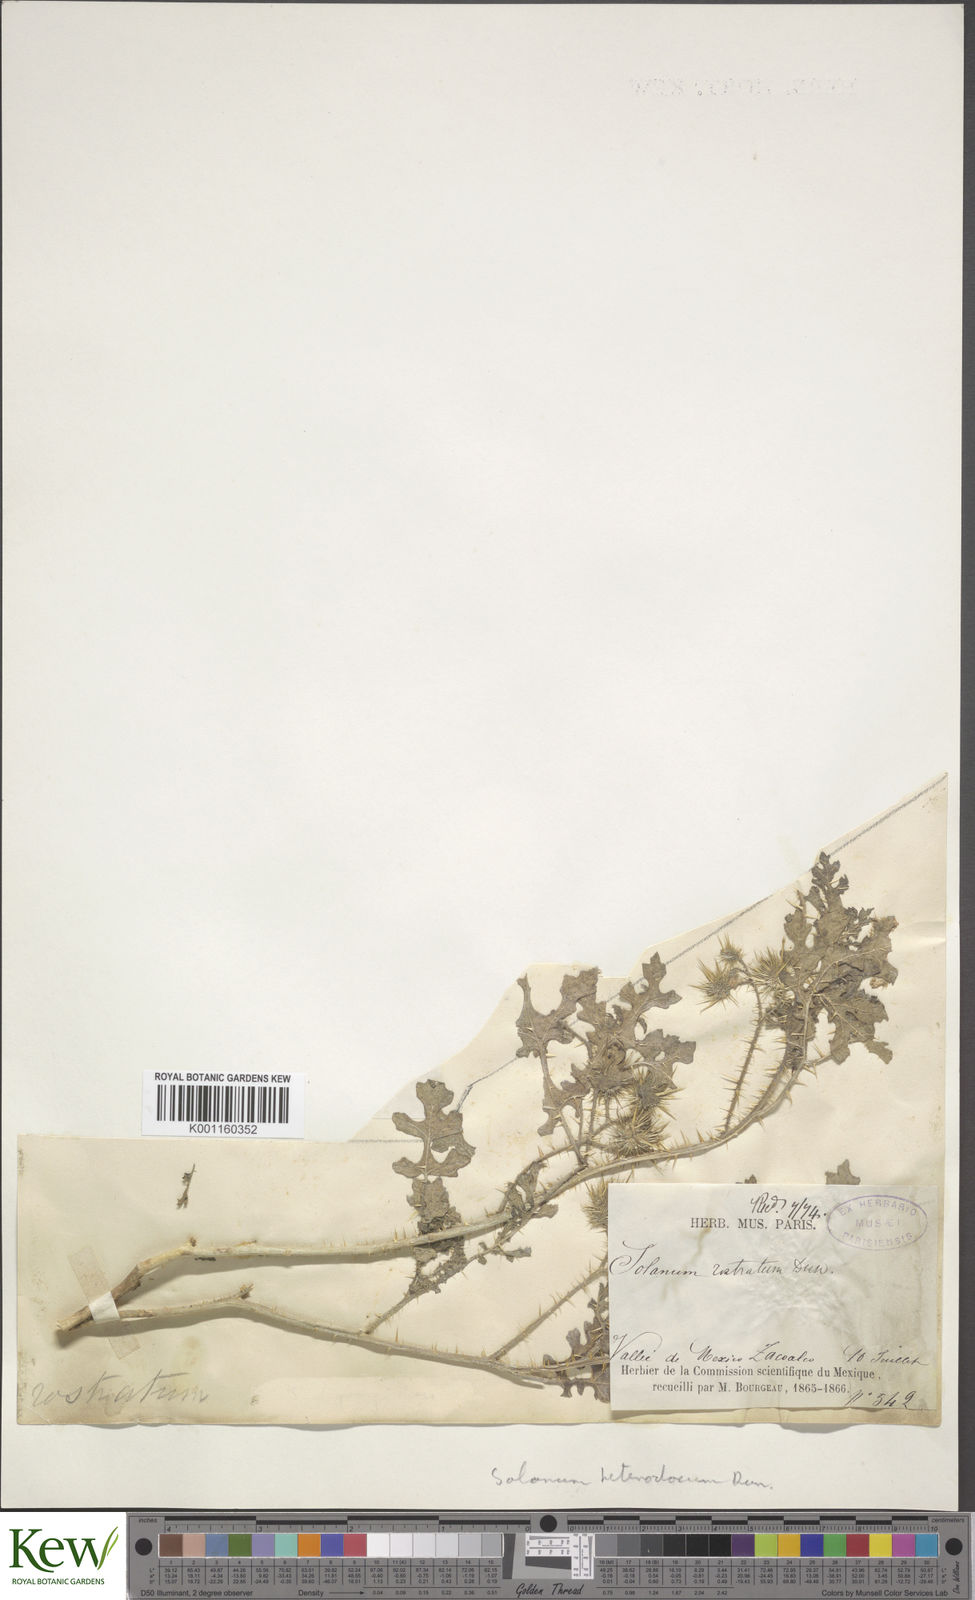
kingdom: Plantae
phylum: Tracheophyta
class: Magnoliopsida
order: Solanales
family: Solanaceae
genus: Solanum
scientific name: Solanum heterodoxum
